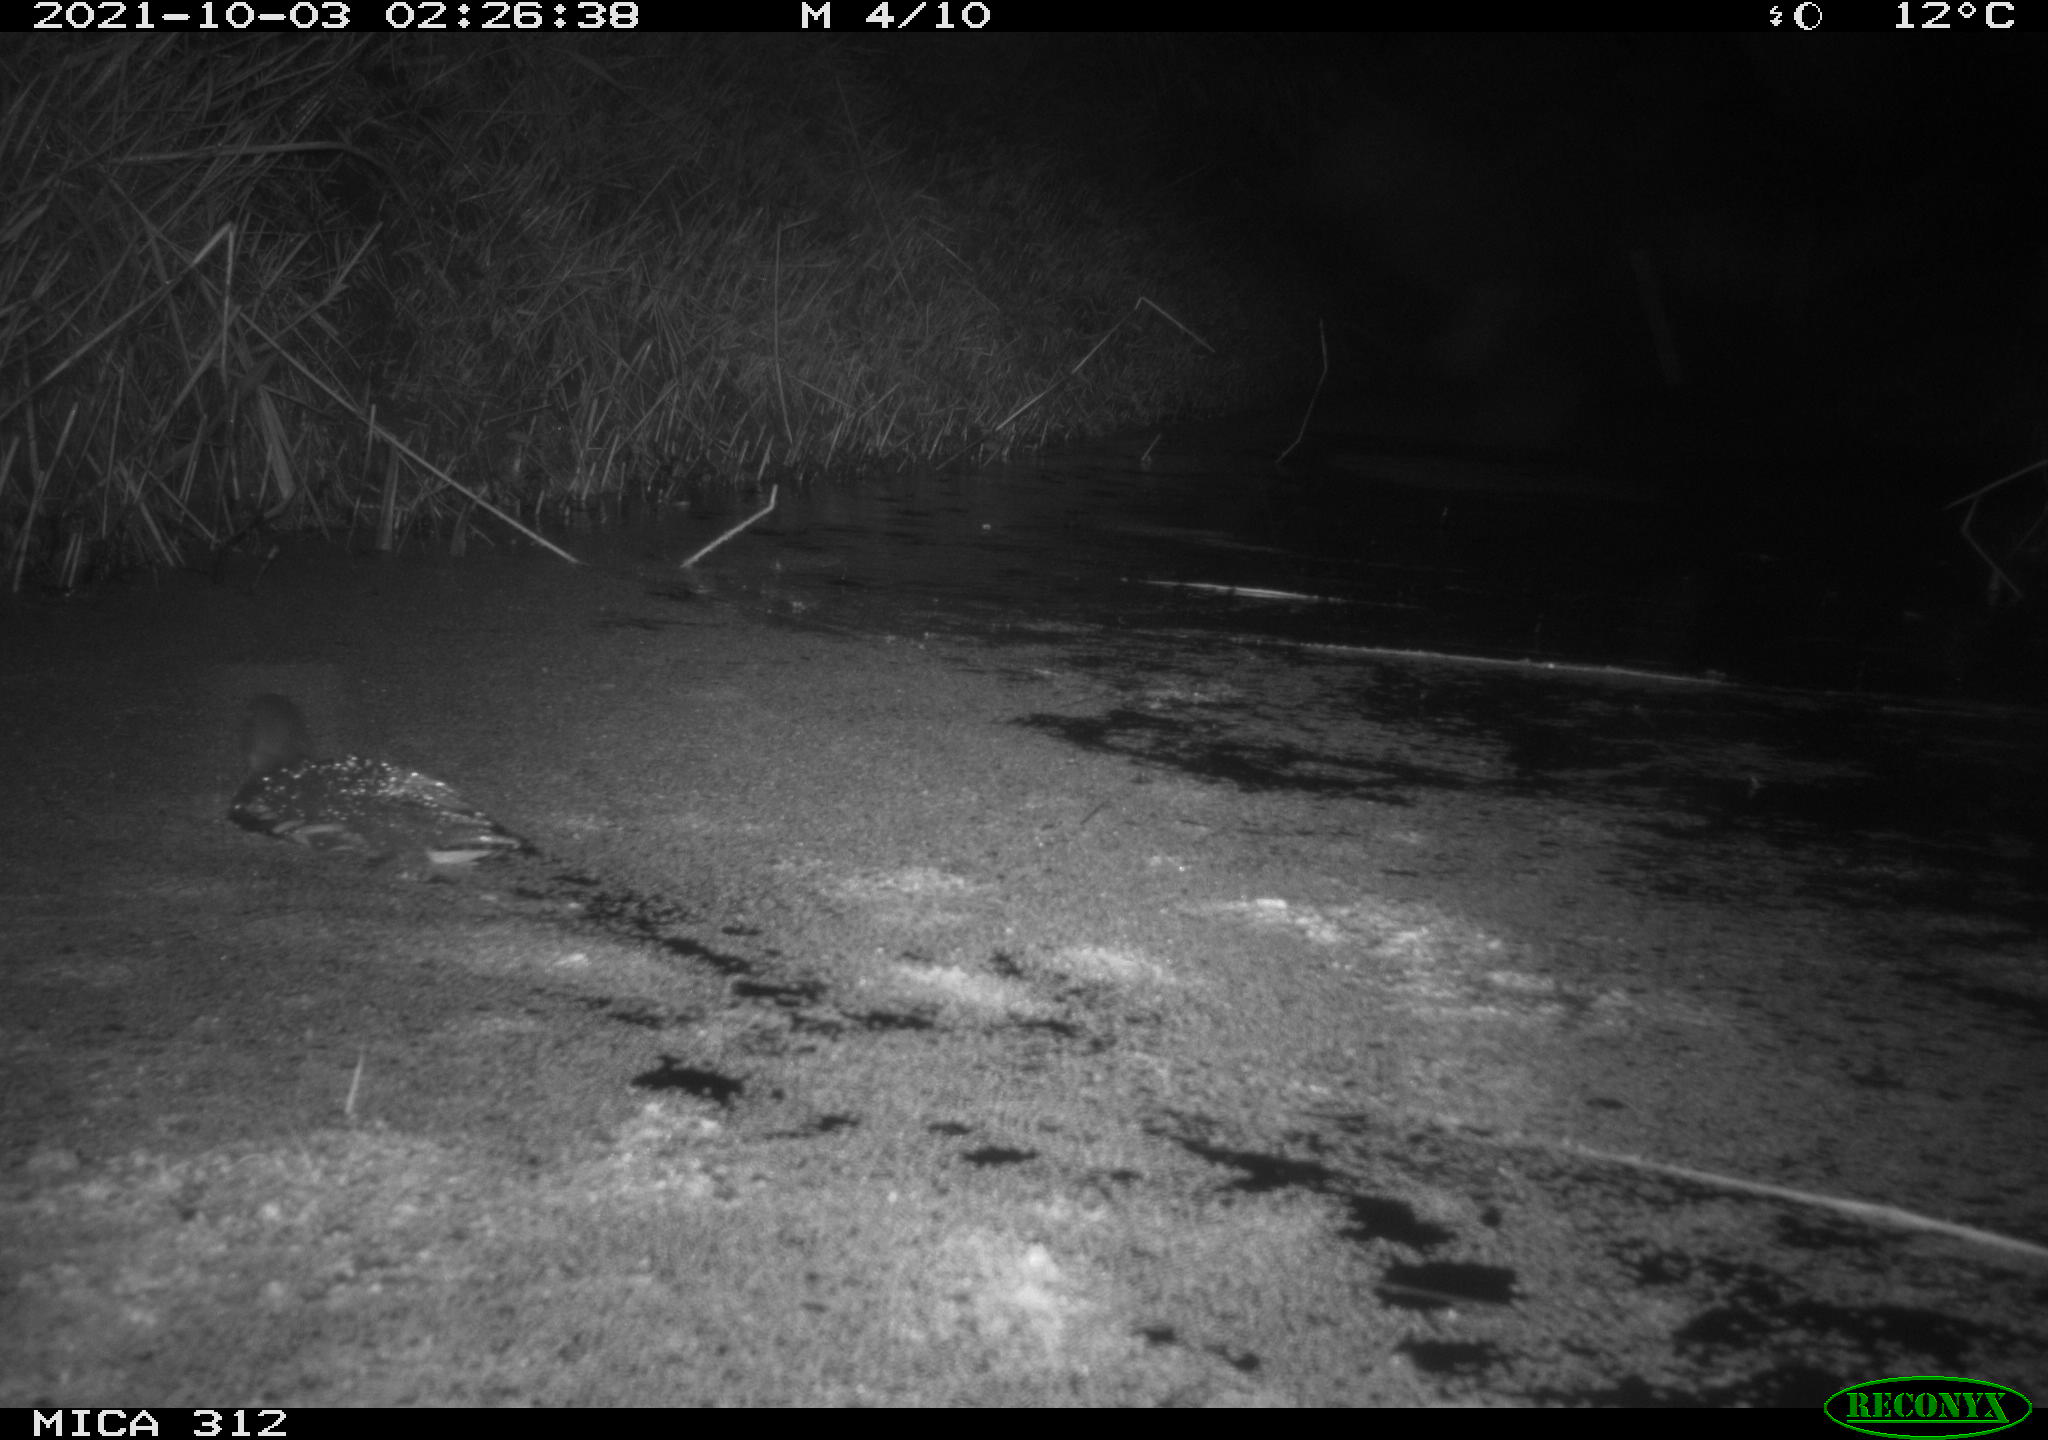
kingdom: Animalia
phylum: Chordata
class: Aves
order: Gruiformes
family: Rallidae
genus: Gallinula
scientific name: Gallinula chloropus
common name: Common moorhen
